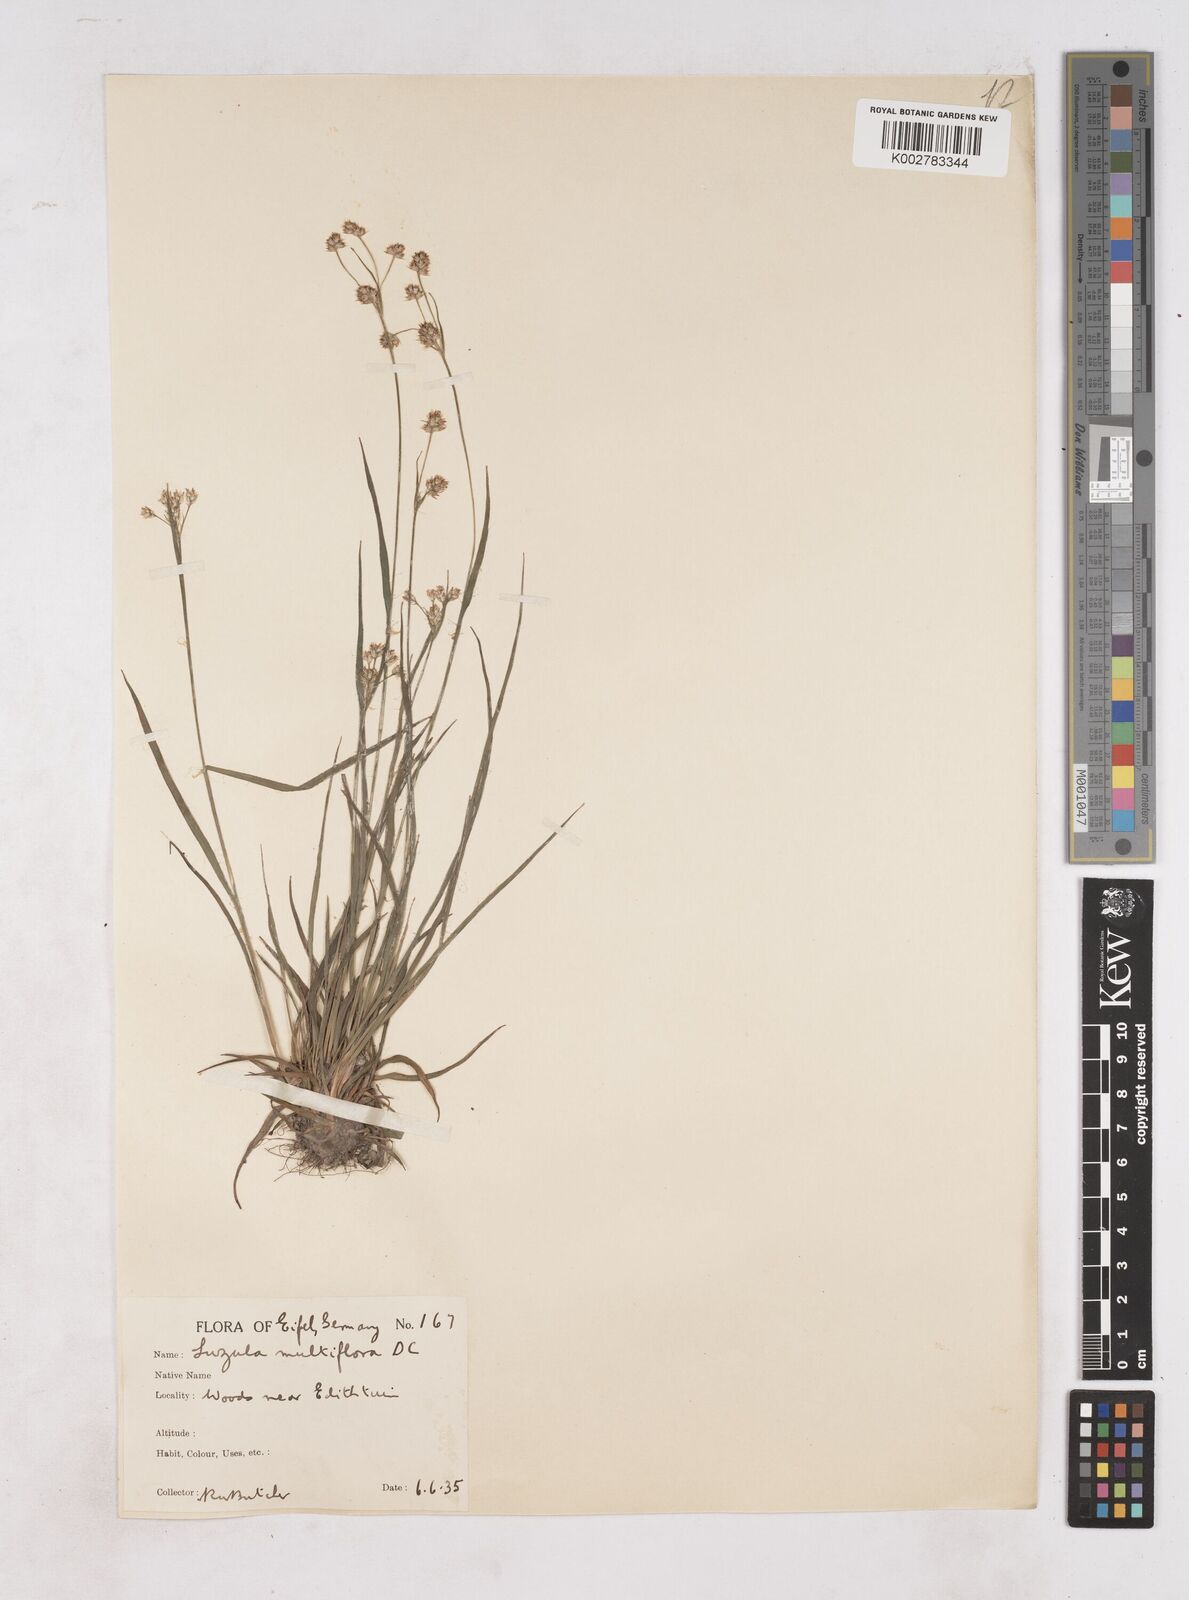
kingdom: Plantae
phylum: Tracheophyta
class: Liliopsida
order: Poales
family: Juncaceae
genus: Luzula
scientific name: Luzula multiflora
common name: Heath wood-rush
